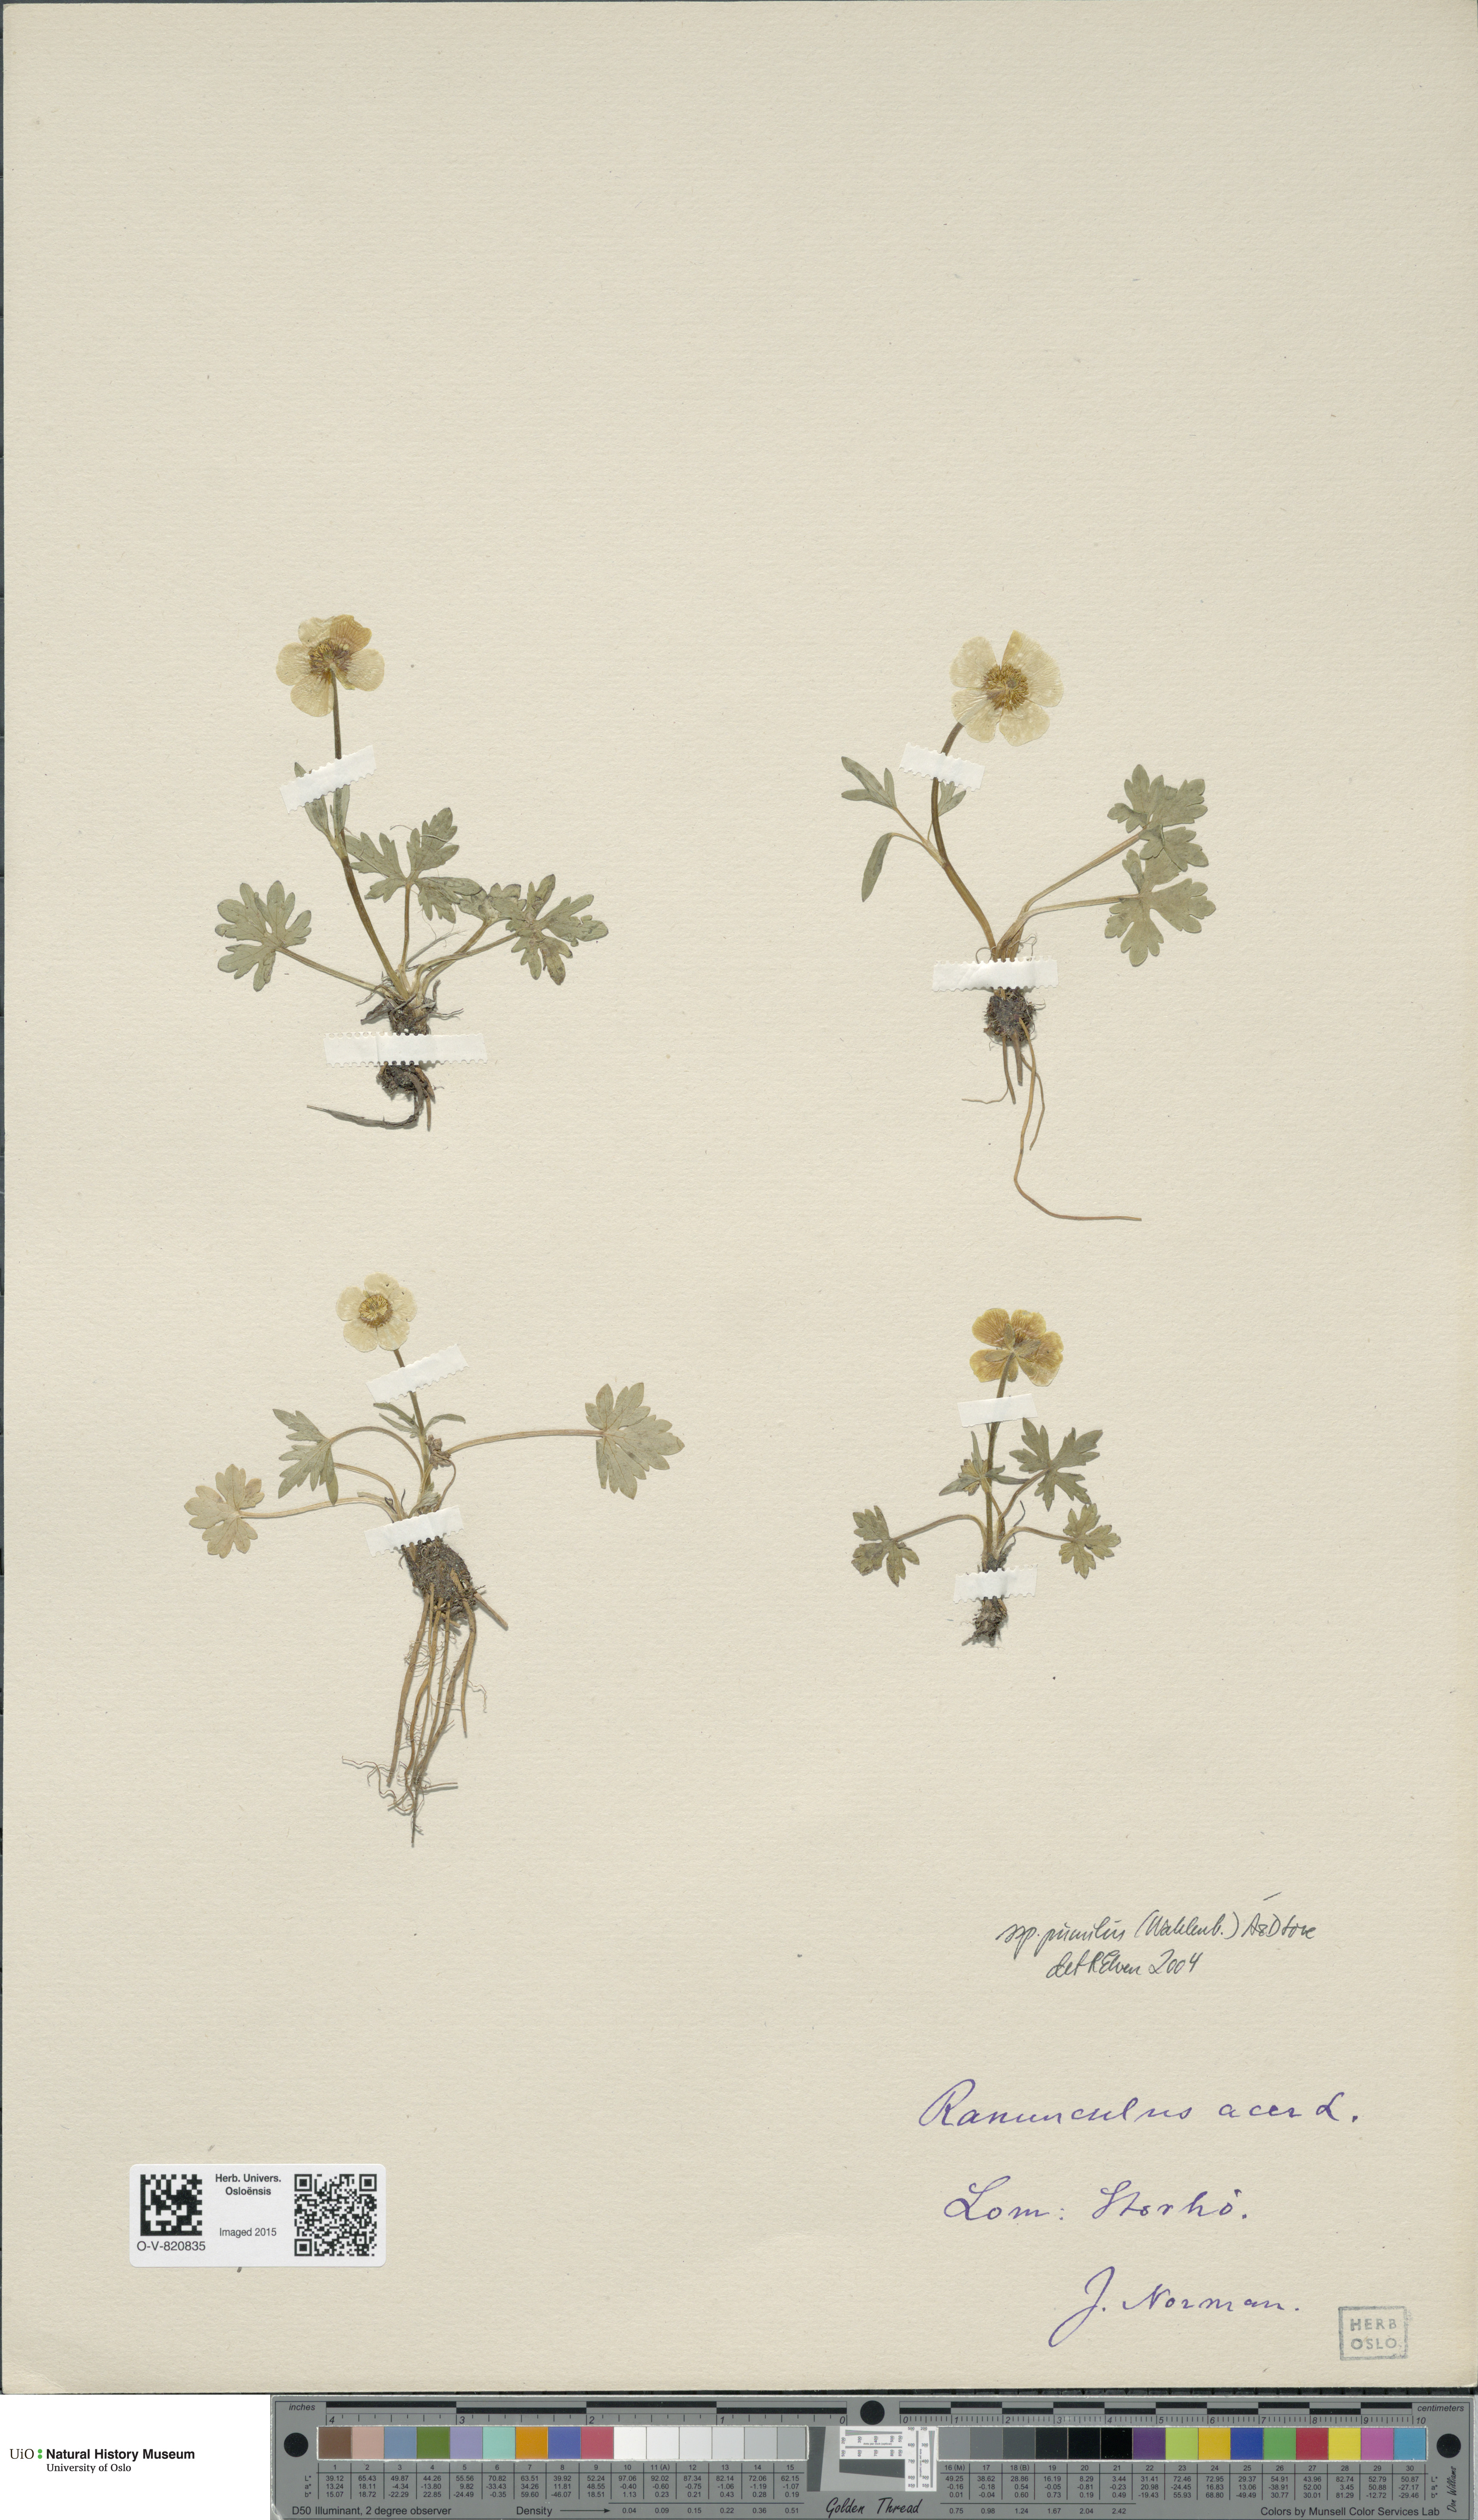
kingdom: Plantae
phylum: Tracheophyta
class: Magnoliopsida
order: Ranunculales
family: Ranunculaceae
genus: Ranunculus
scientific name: Ranunculus
